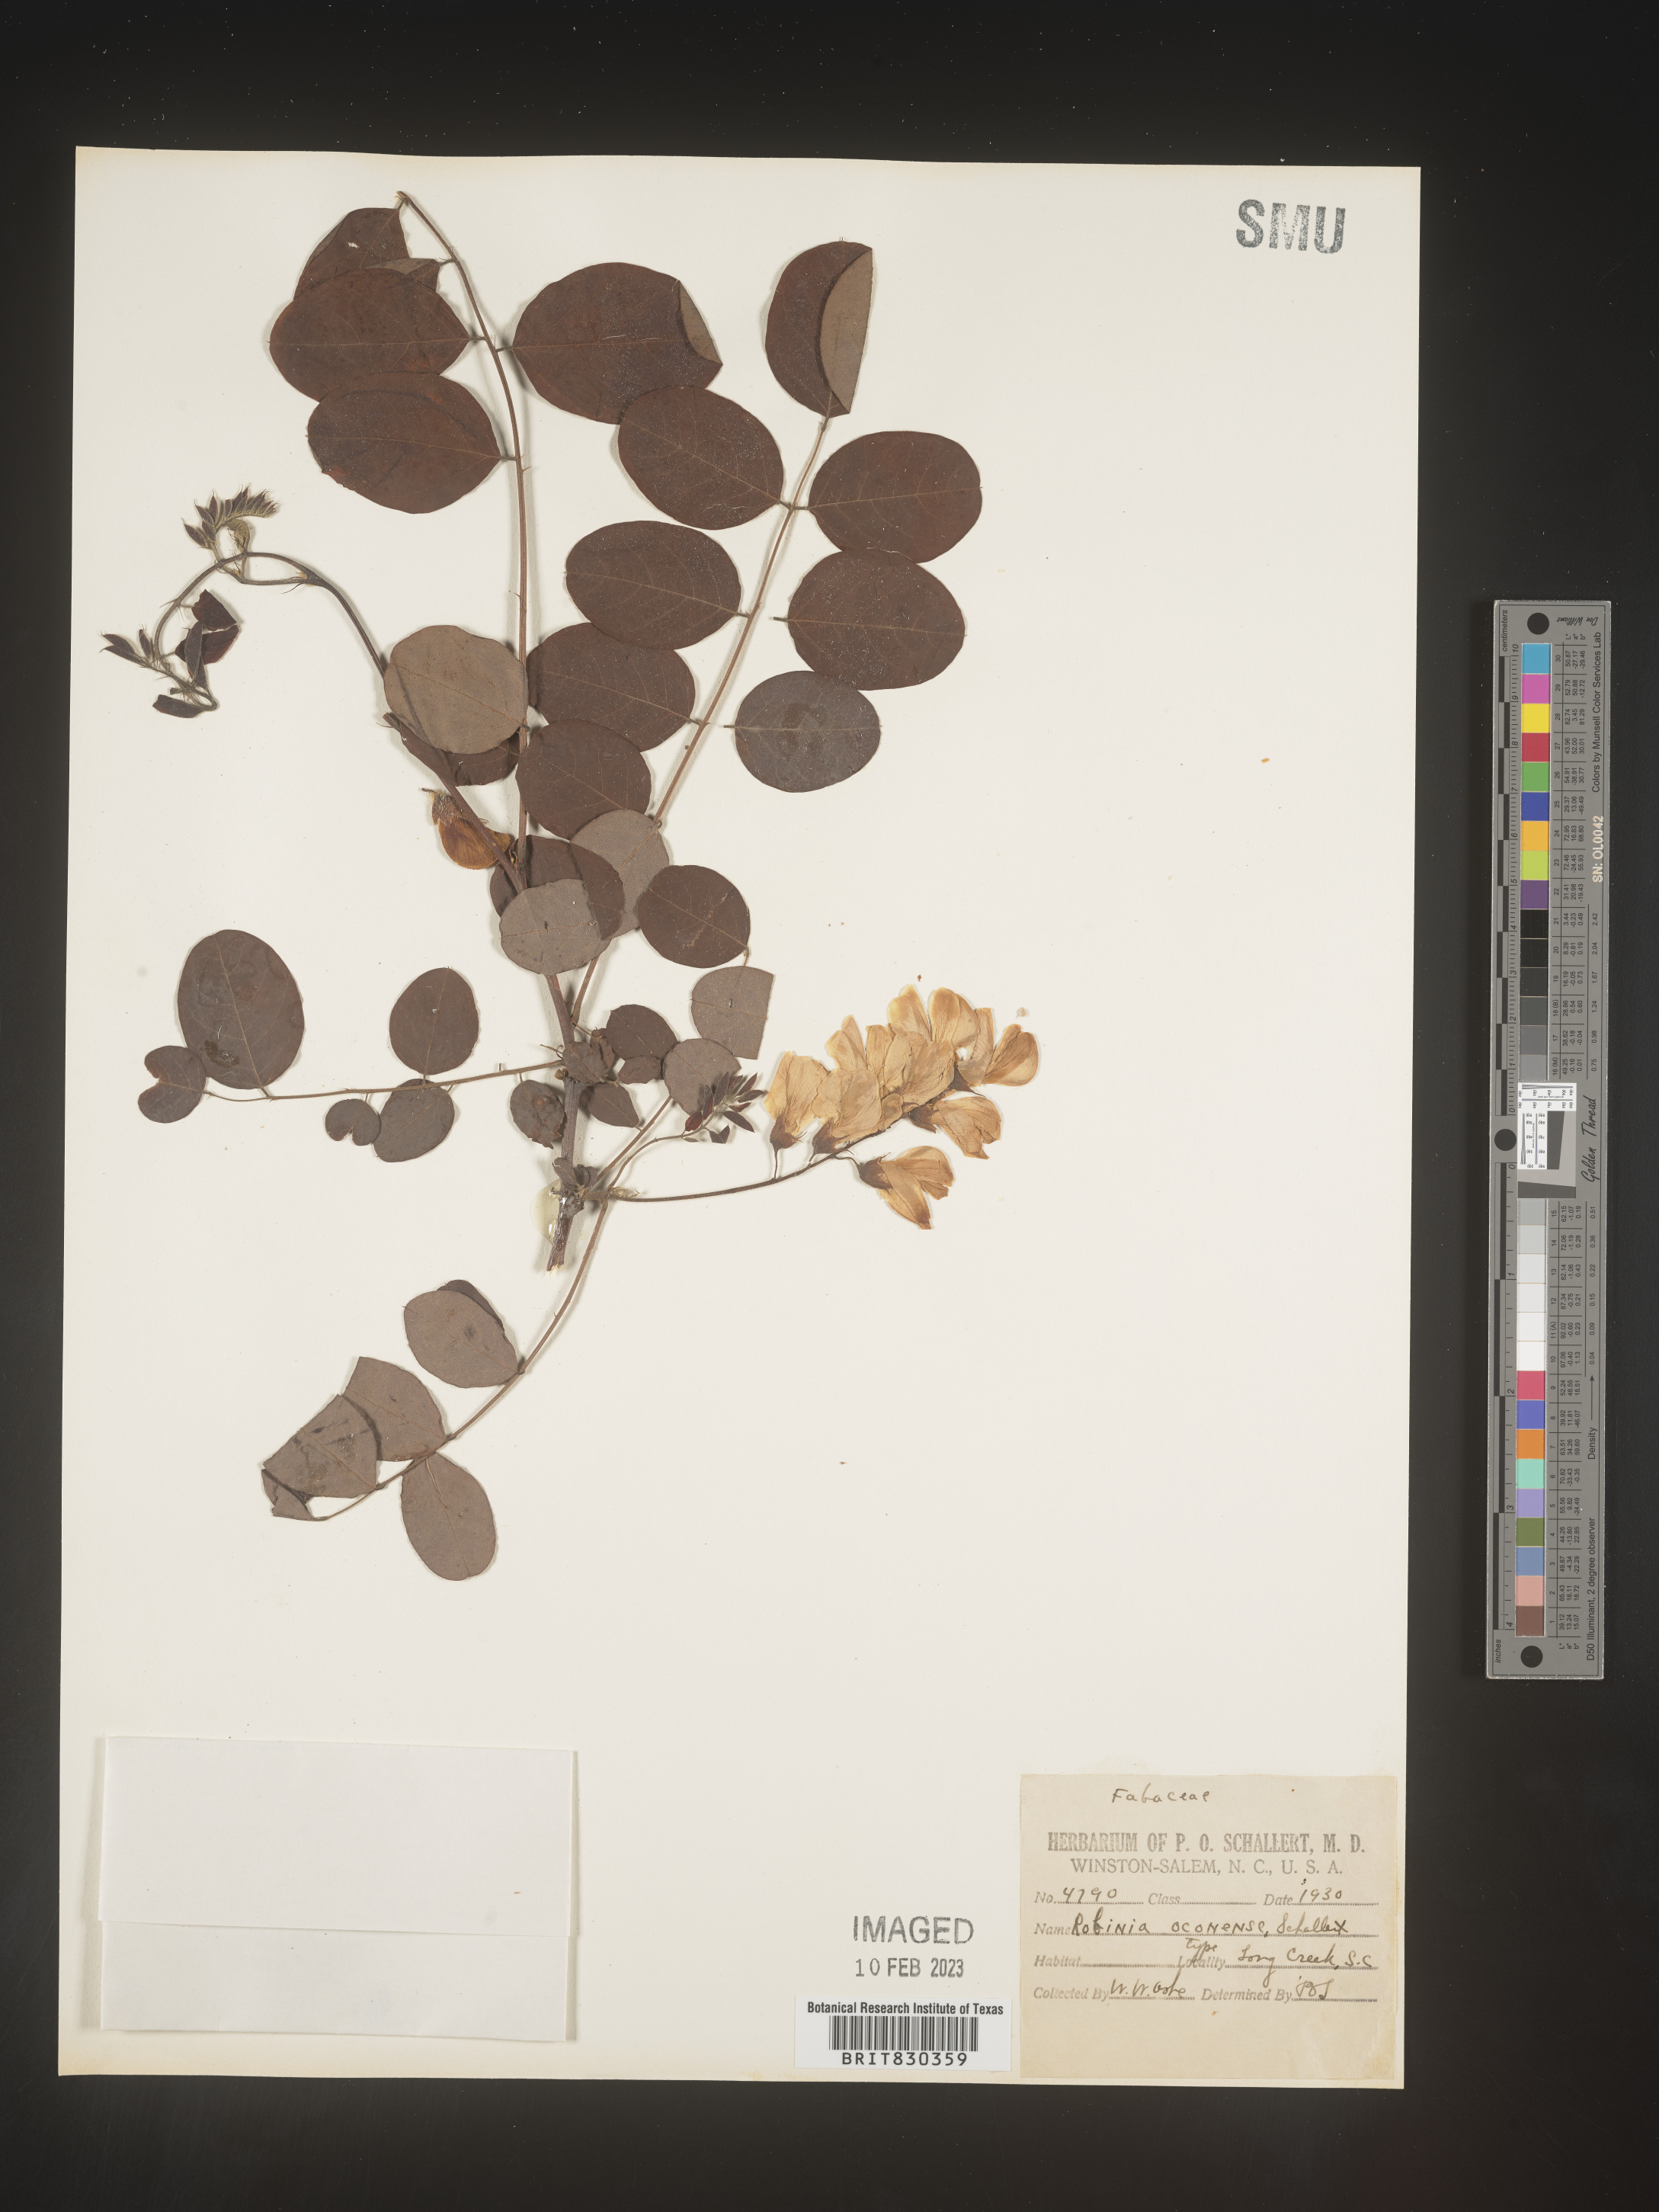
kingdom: Plantae
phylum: Tracheophyta
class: Magnoliopsida
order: Fabales
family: Fabaceae
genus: Robinia
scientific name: Robinia
